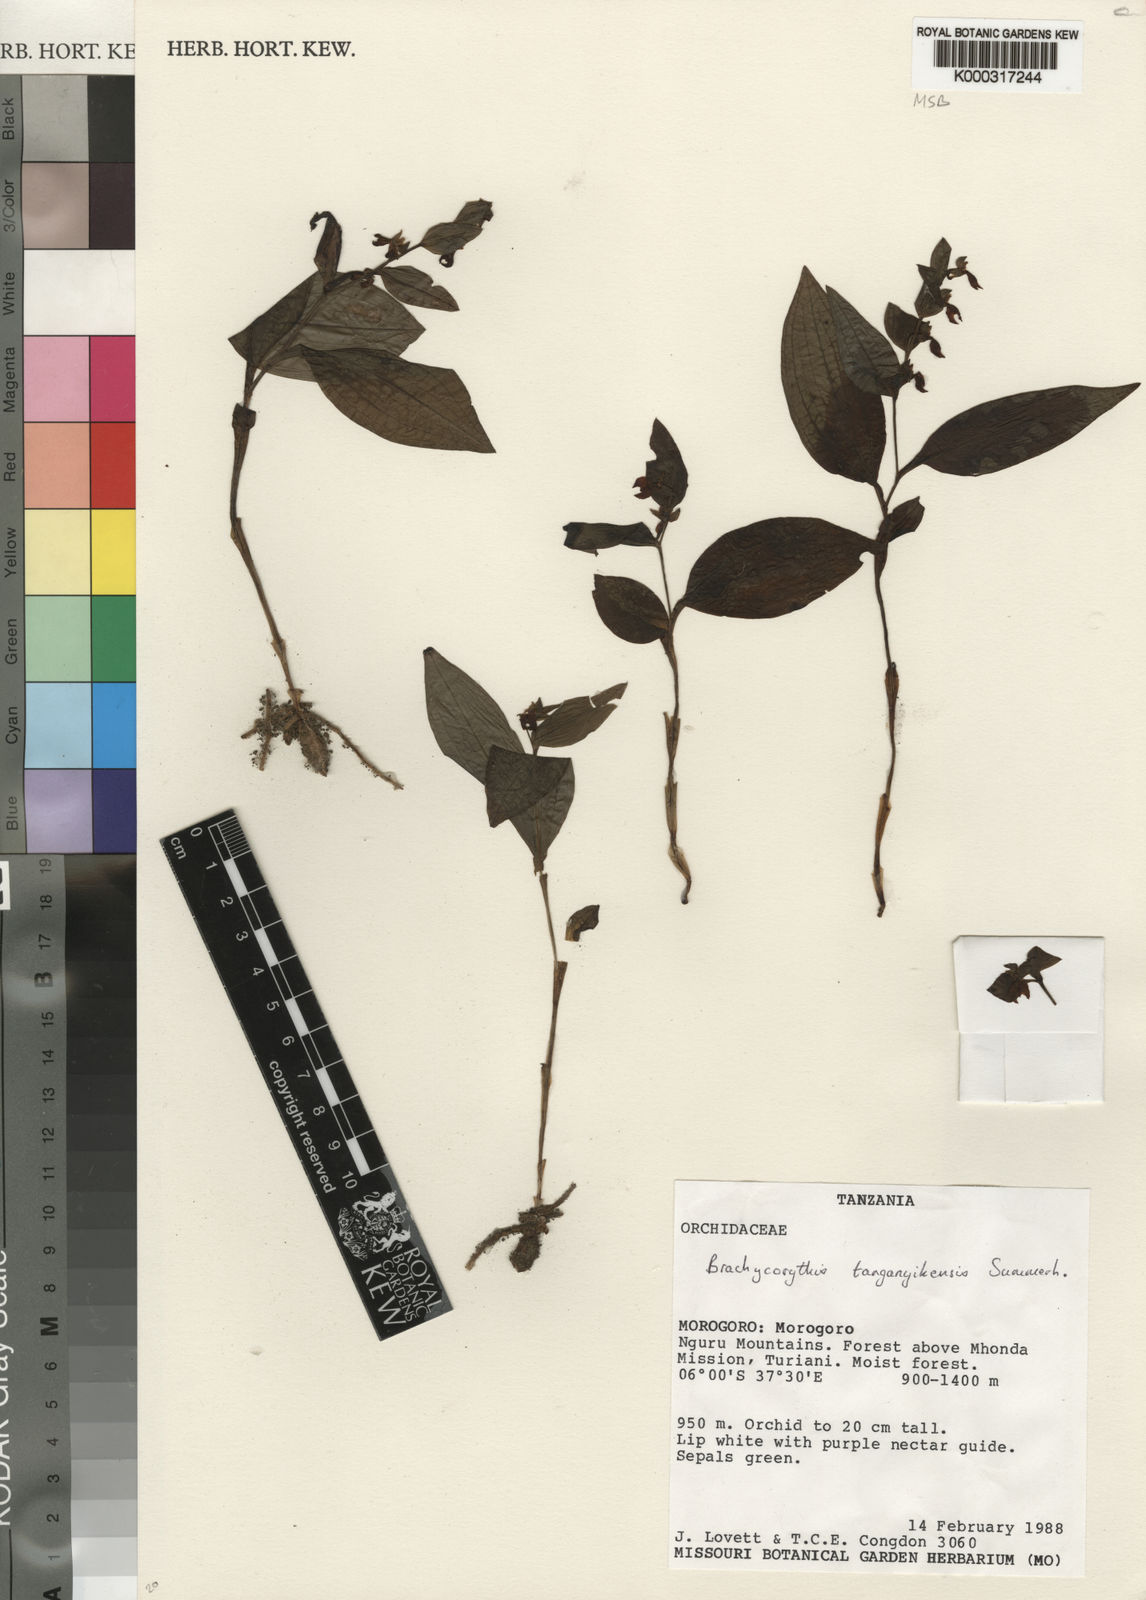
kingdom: Plantae
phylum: Tracheophyta
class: Liliopsida
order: Asparagales
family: Orchidaceae
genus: Brachycorythis
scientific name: Brachycorythis tanganyikensis
